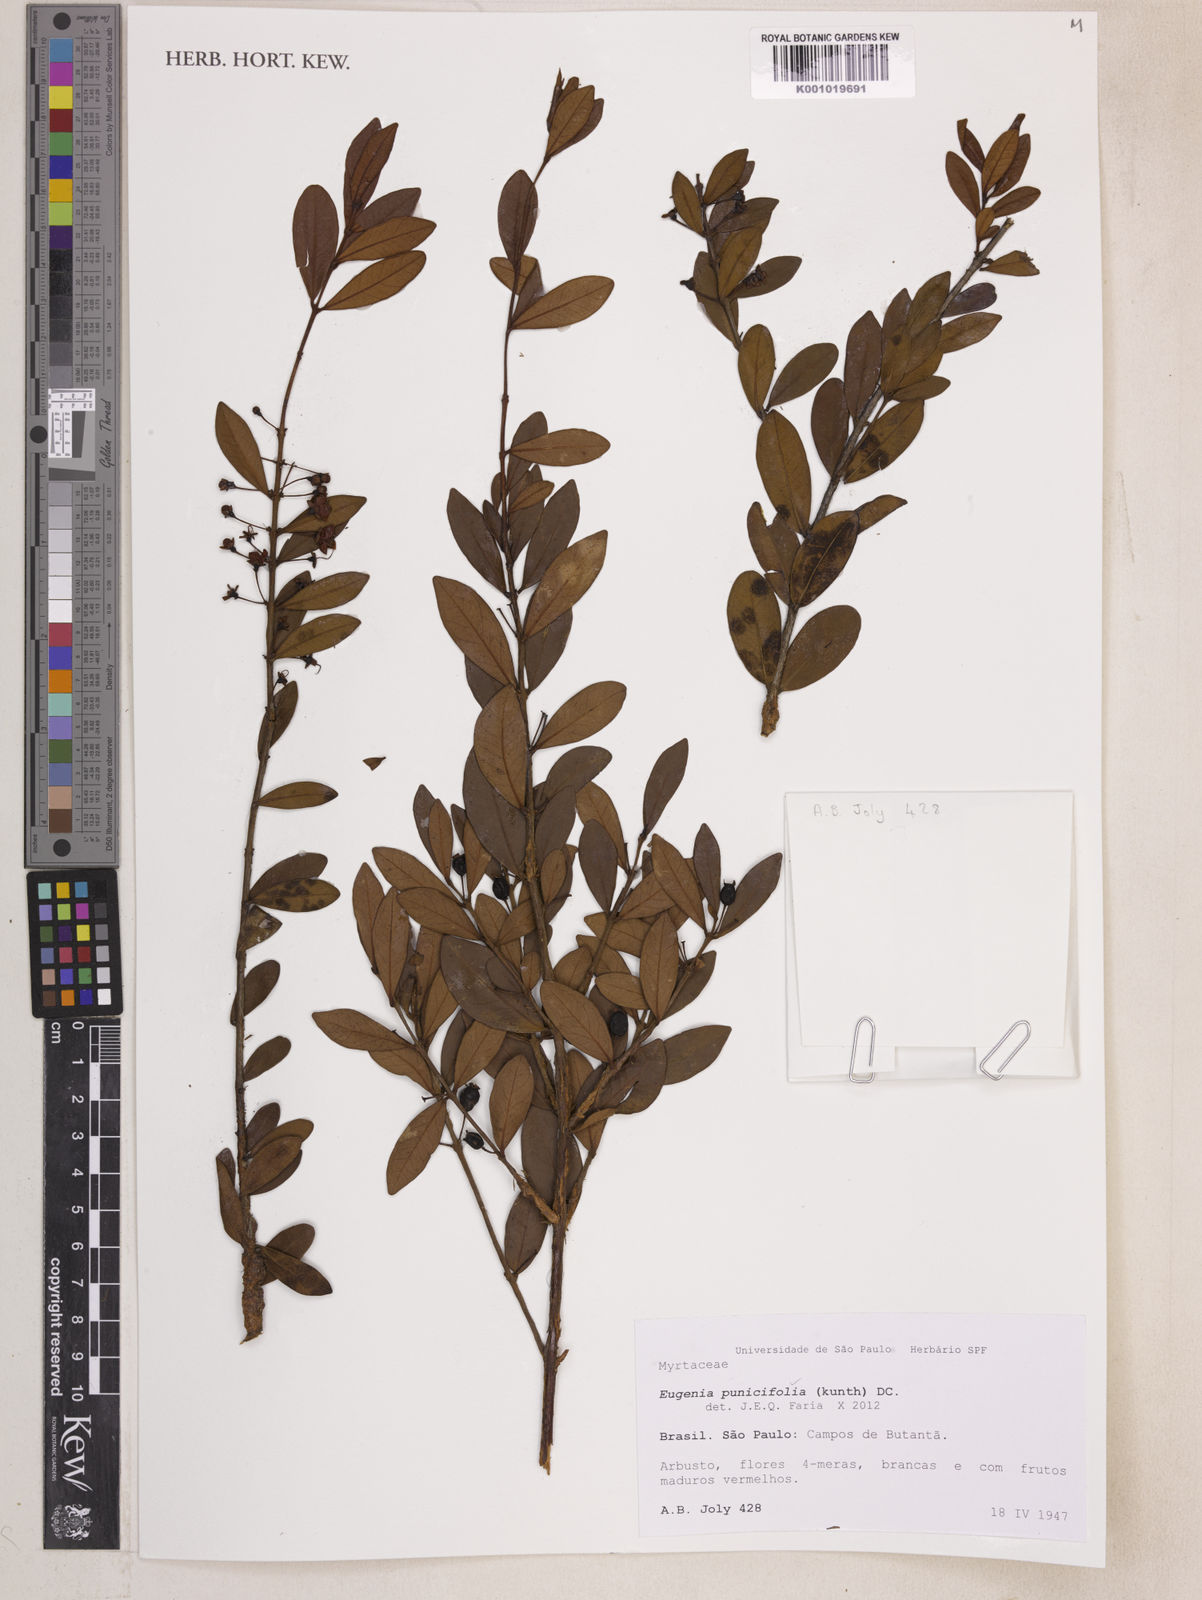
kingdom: Plantae
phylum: Tracheophyta
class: Magnoliopsida
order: Myrtales
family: Myrtaceae
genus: Eugenia
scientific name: Eugenia punicifolia
